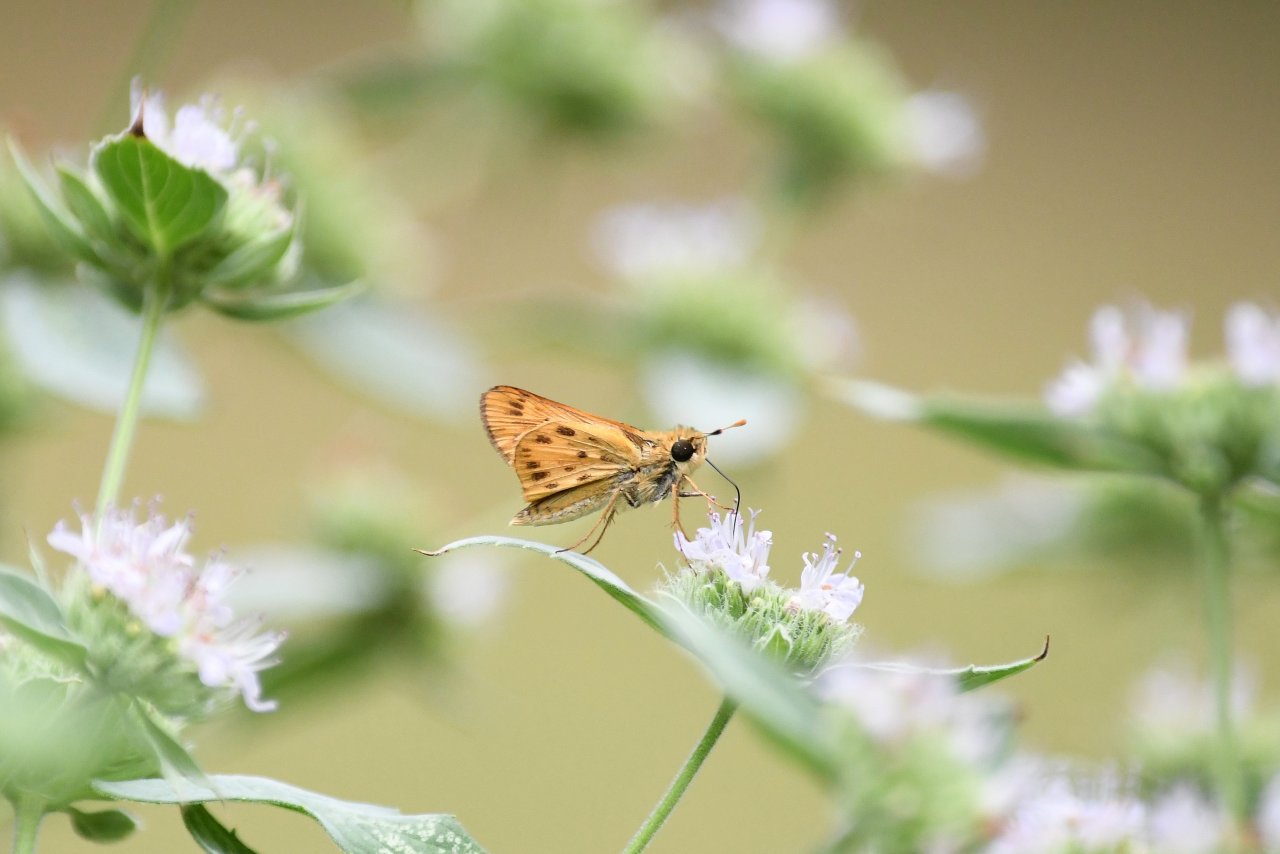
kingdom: Animalia
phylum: Arthropoda
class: Insecta
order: Lepidoptera
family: Hesperiidae
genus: Hylephila
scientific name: Hylephila phyleus
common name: Fiery Skipper
